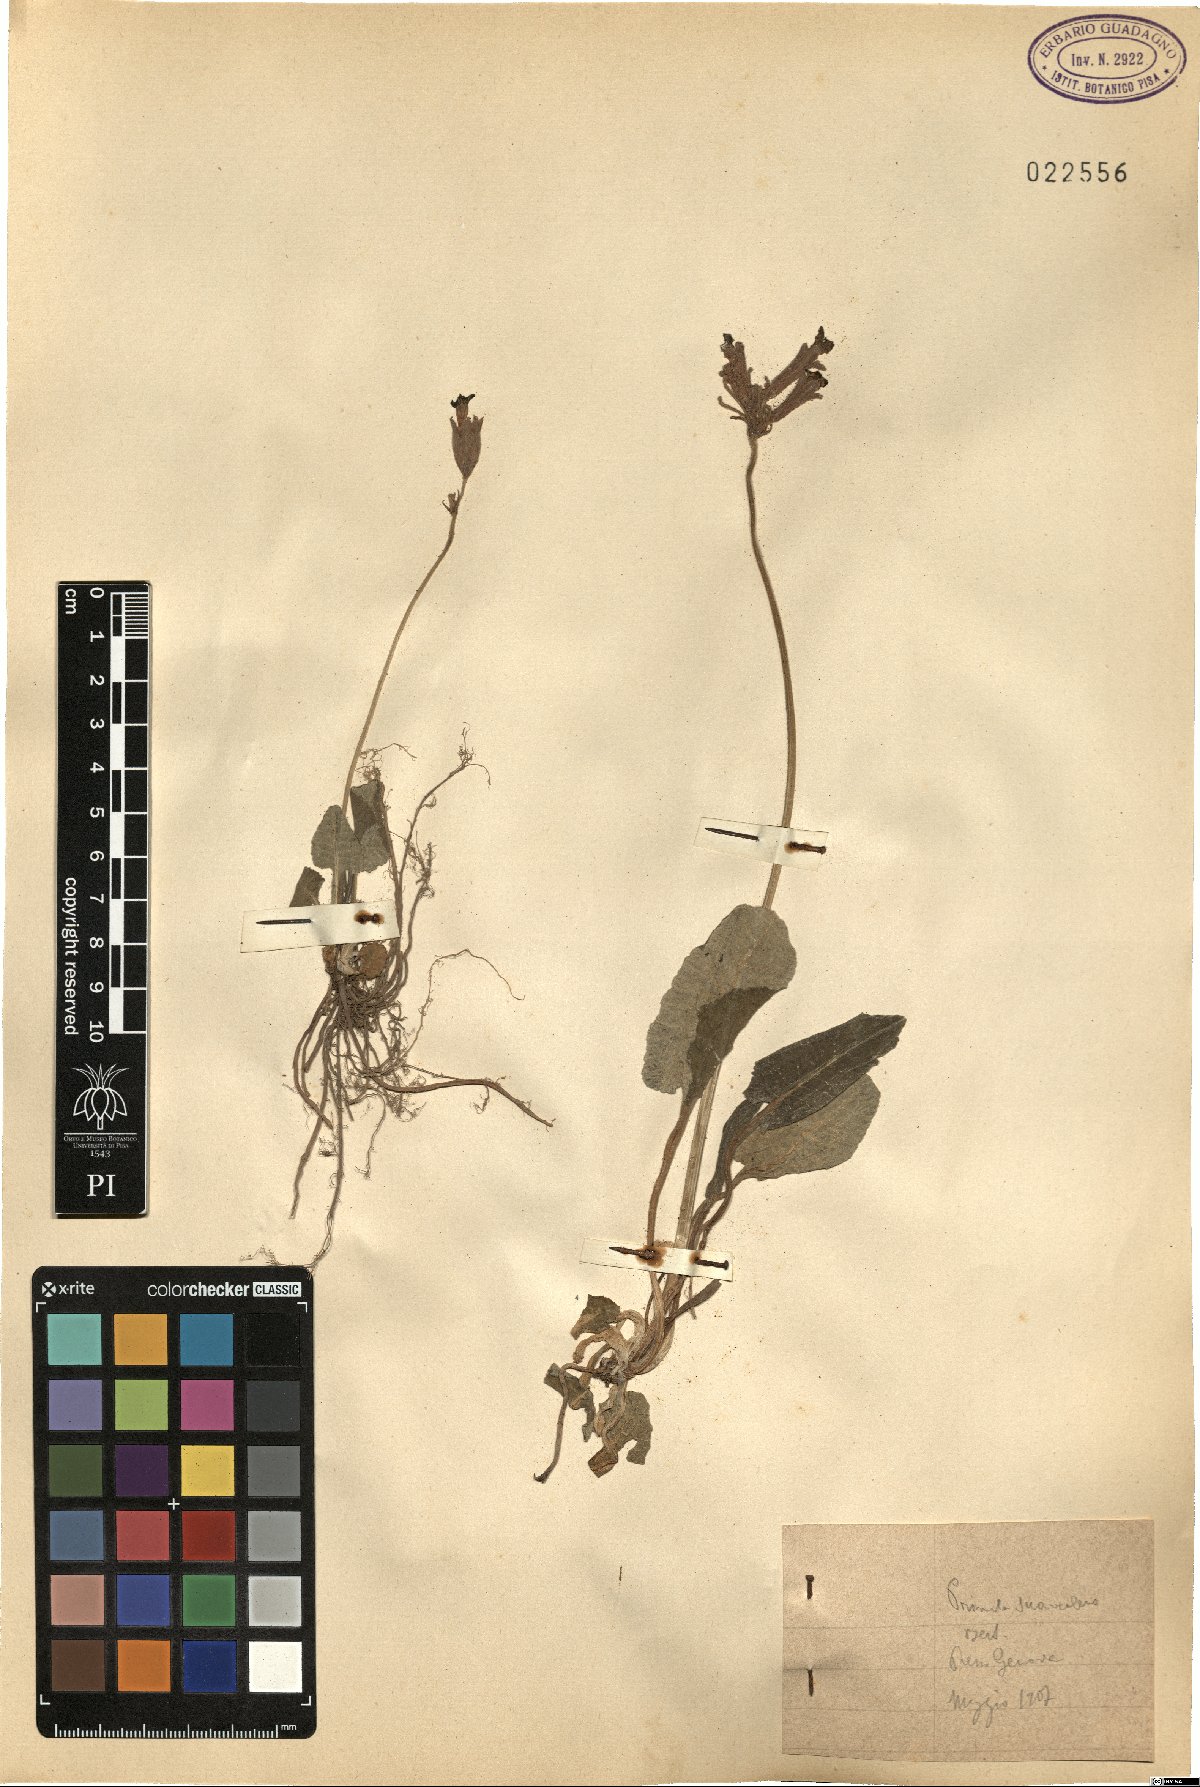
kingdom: Plantae
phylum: Tracheophyta
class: Magnoliopsida
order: Ericales
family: Primulaceae
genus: Primula
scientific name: Primula veris
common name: Cowslip
